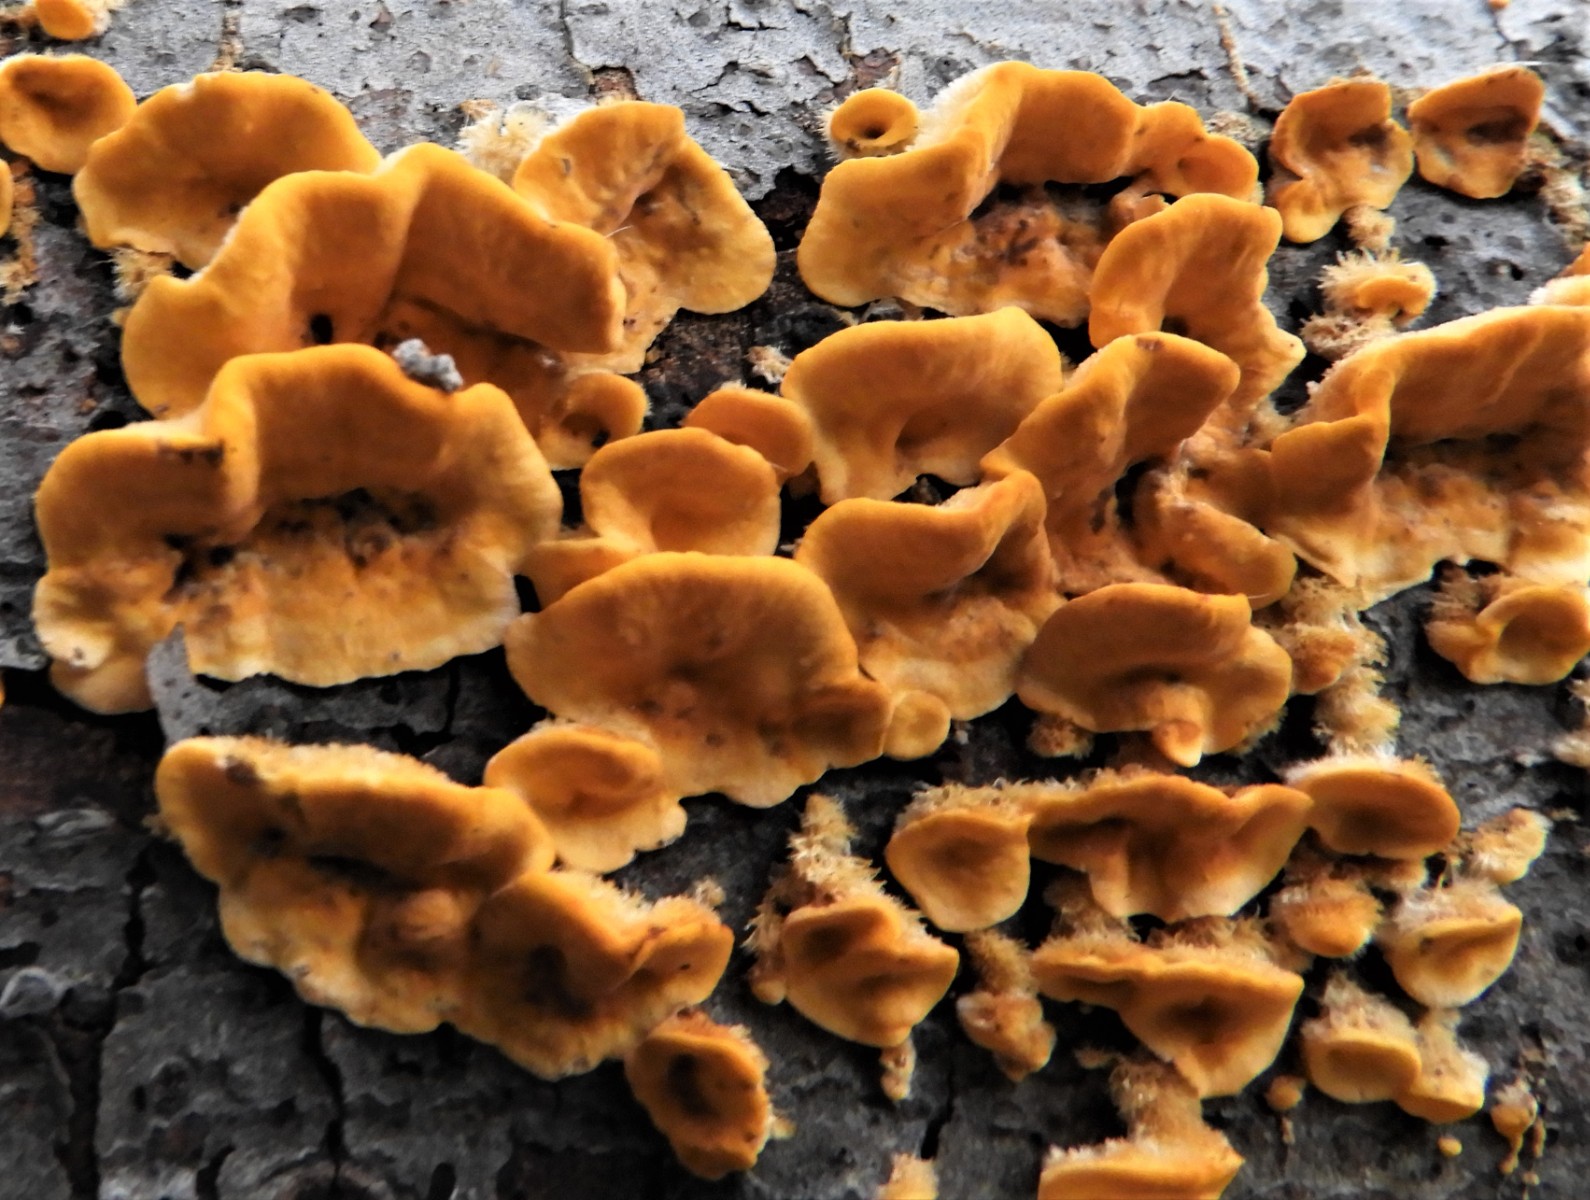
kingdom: Fungi
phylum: Basidiomycota
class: Agaricomycetes
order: Russulales
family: Stereaceae
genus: Stereum
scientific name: Stereum hirsutum
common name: håret lædersvamp
